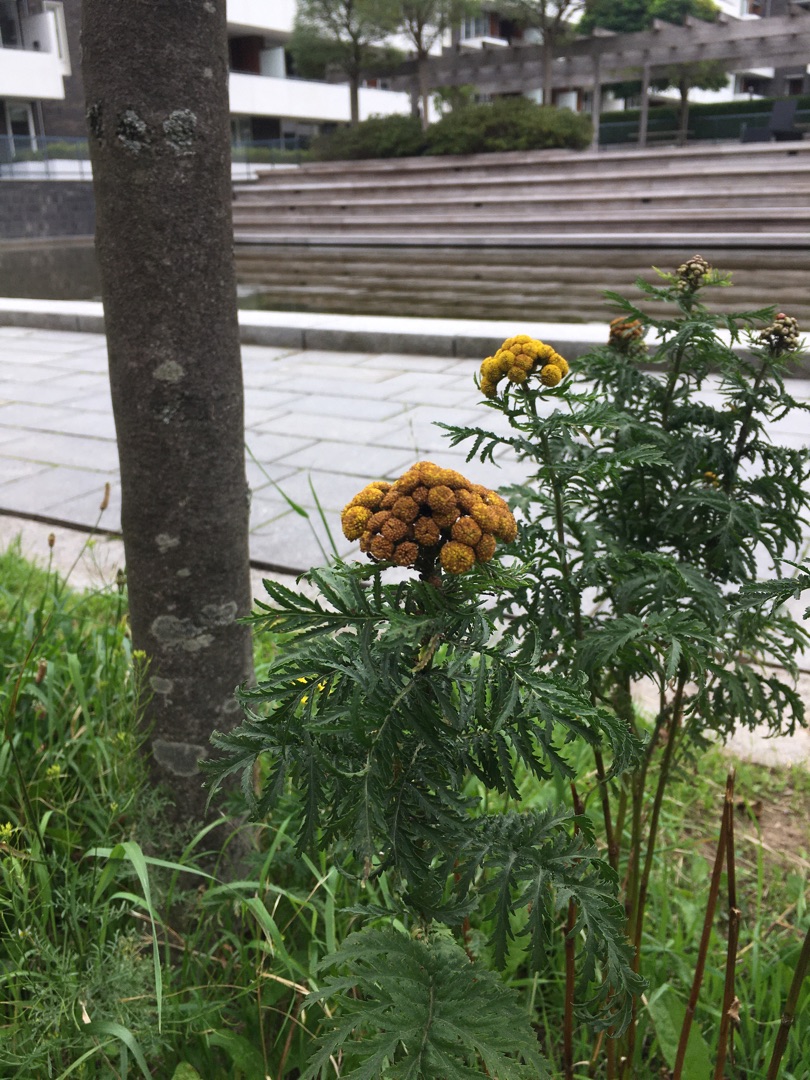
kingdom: Plantae
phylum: Tracheophyta
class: Magnoliopsida
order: Asterales
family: Asteraceae
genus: Tanacetum
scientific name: Tanacetum vulgare
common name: Rejnfan
